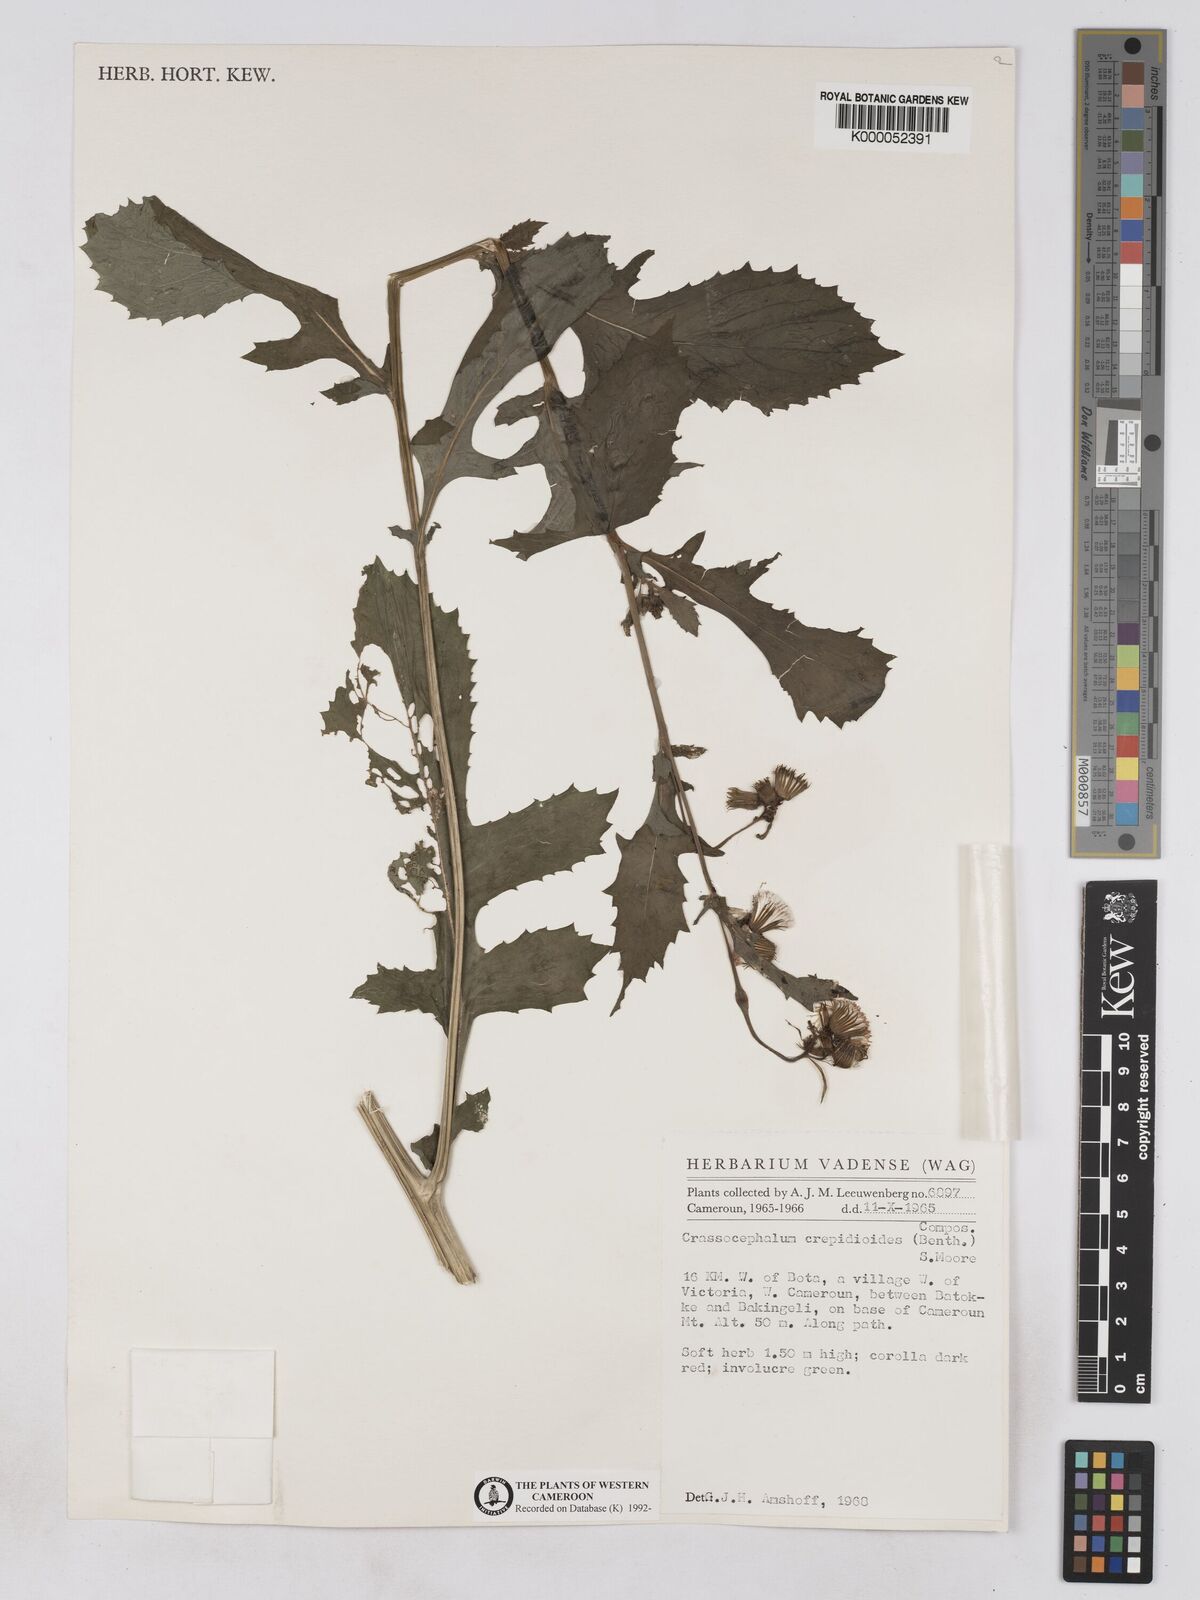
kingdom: Plantae
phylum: Tracheophyta
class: Magnoliopsida
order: Asterales
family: Asteraceae
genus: Crassocephalum
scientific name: Crassocephalum crepidioides
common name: Redflower ragleaf
